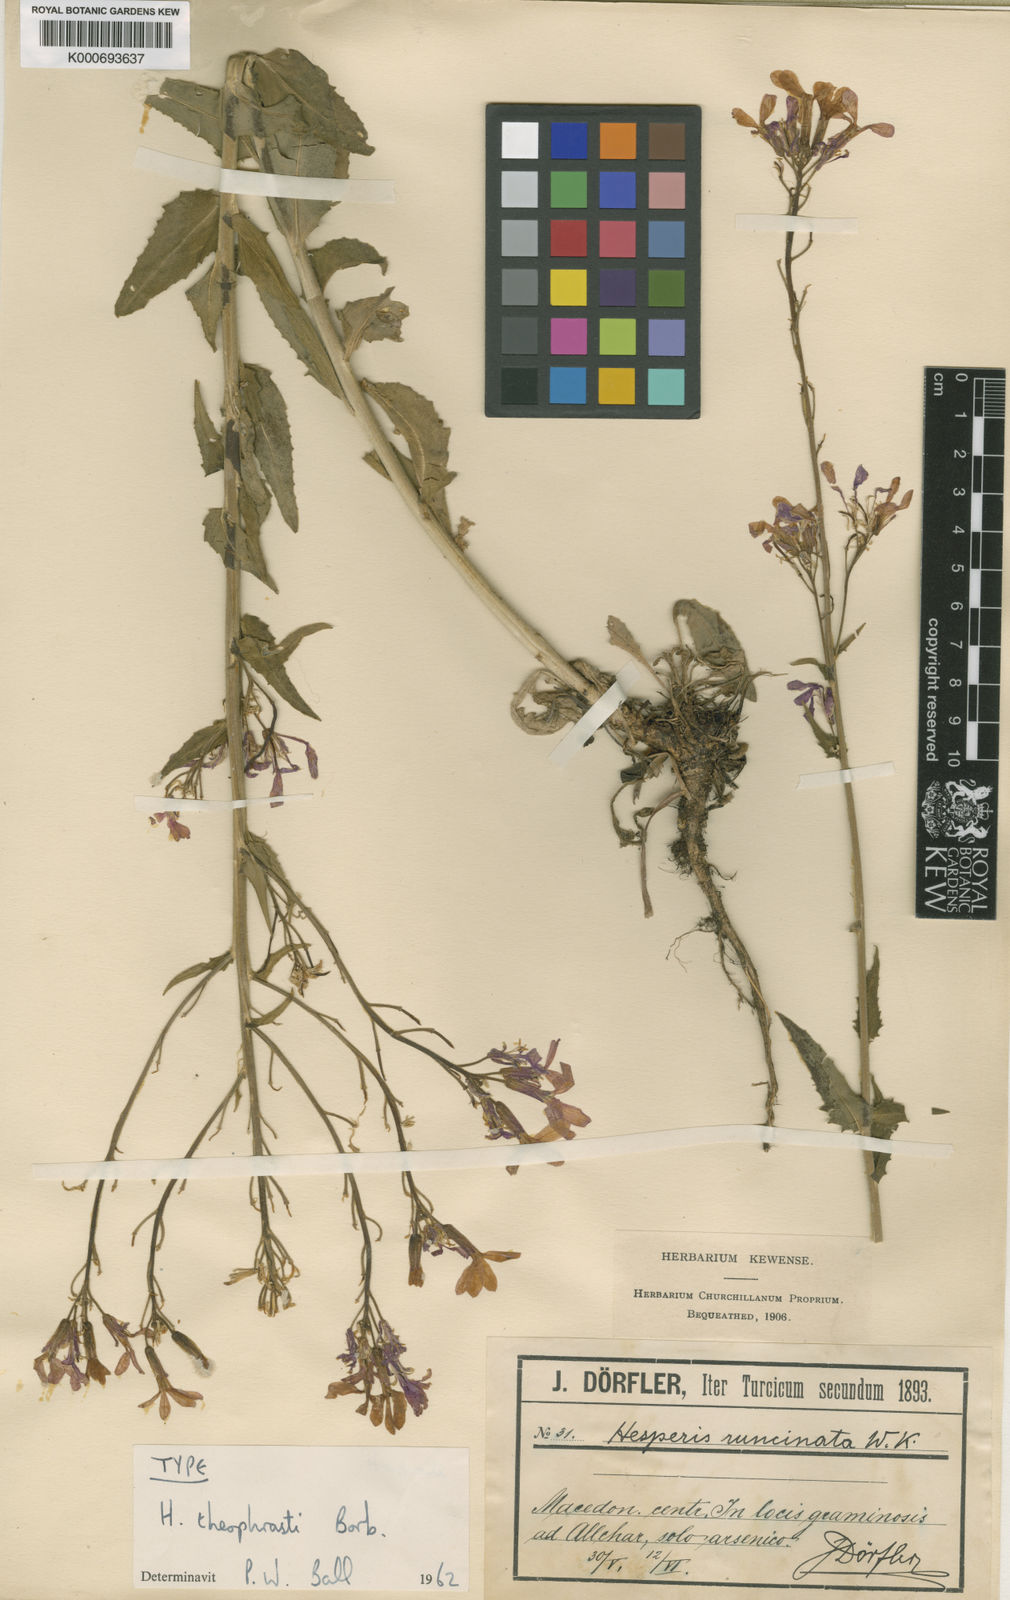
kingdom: Plantae
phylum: Tracheophyta
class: Magnoliopsida
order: Brassicales
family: Brassicaceae
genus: Hesperis
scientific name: Hesperis
